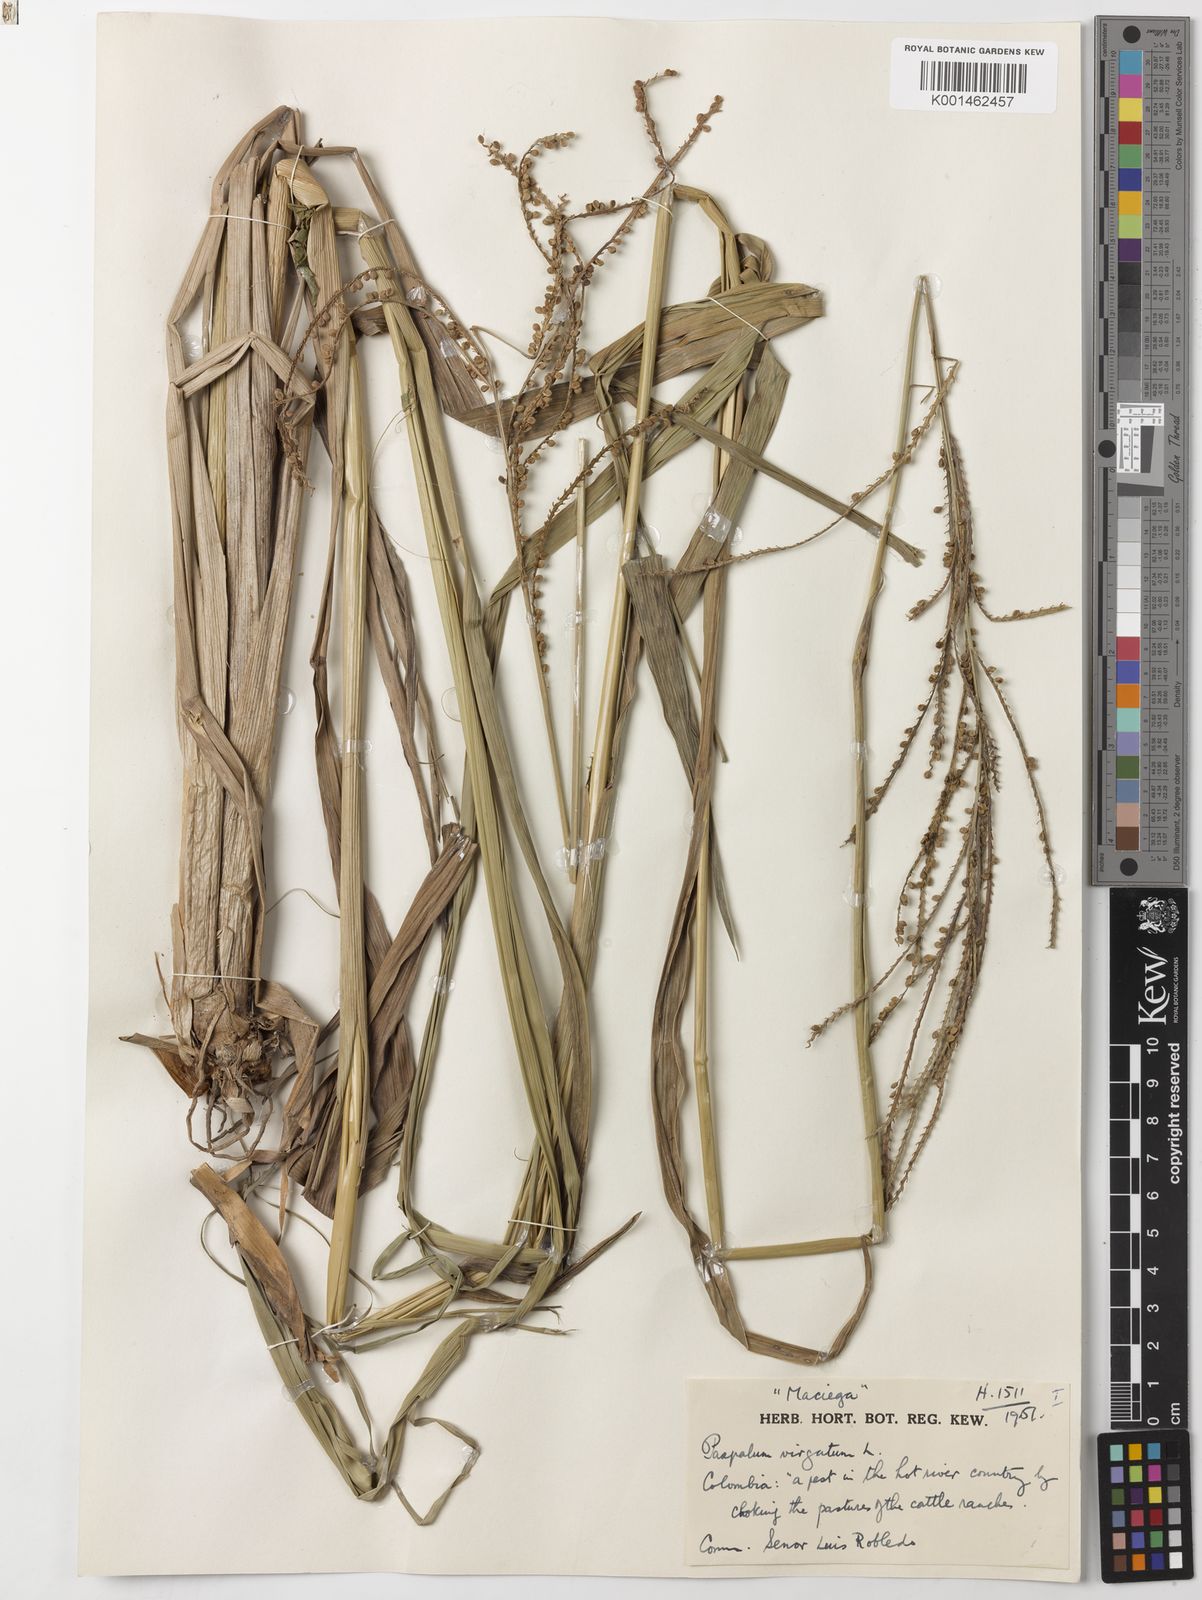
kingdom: Plantae
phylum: Tracheophyta
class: Liliopsida
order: Poales
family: Poaceae
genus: Paspalum
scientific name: Paspalum virgatum
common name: Talquezal
